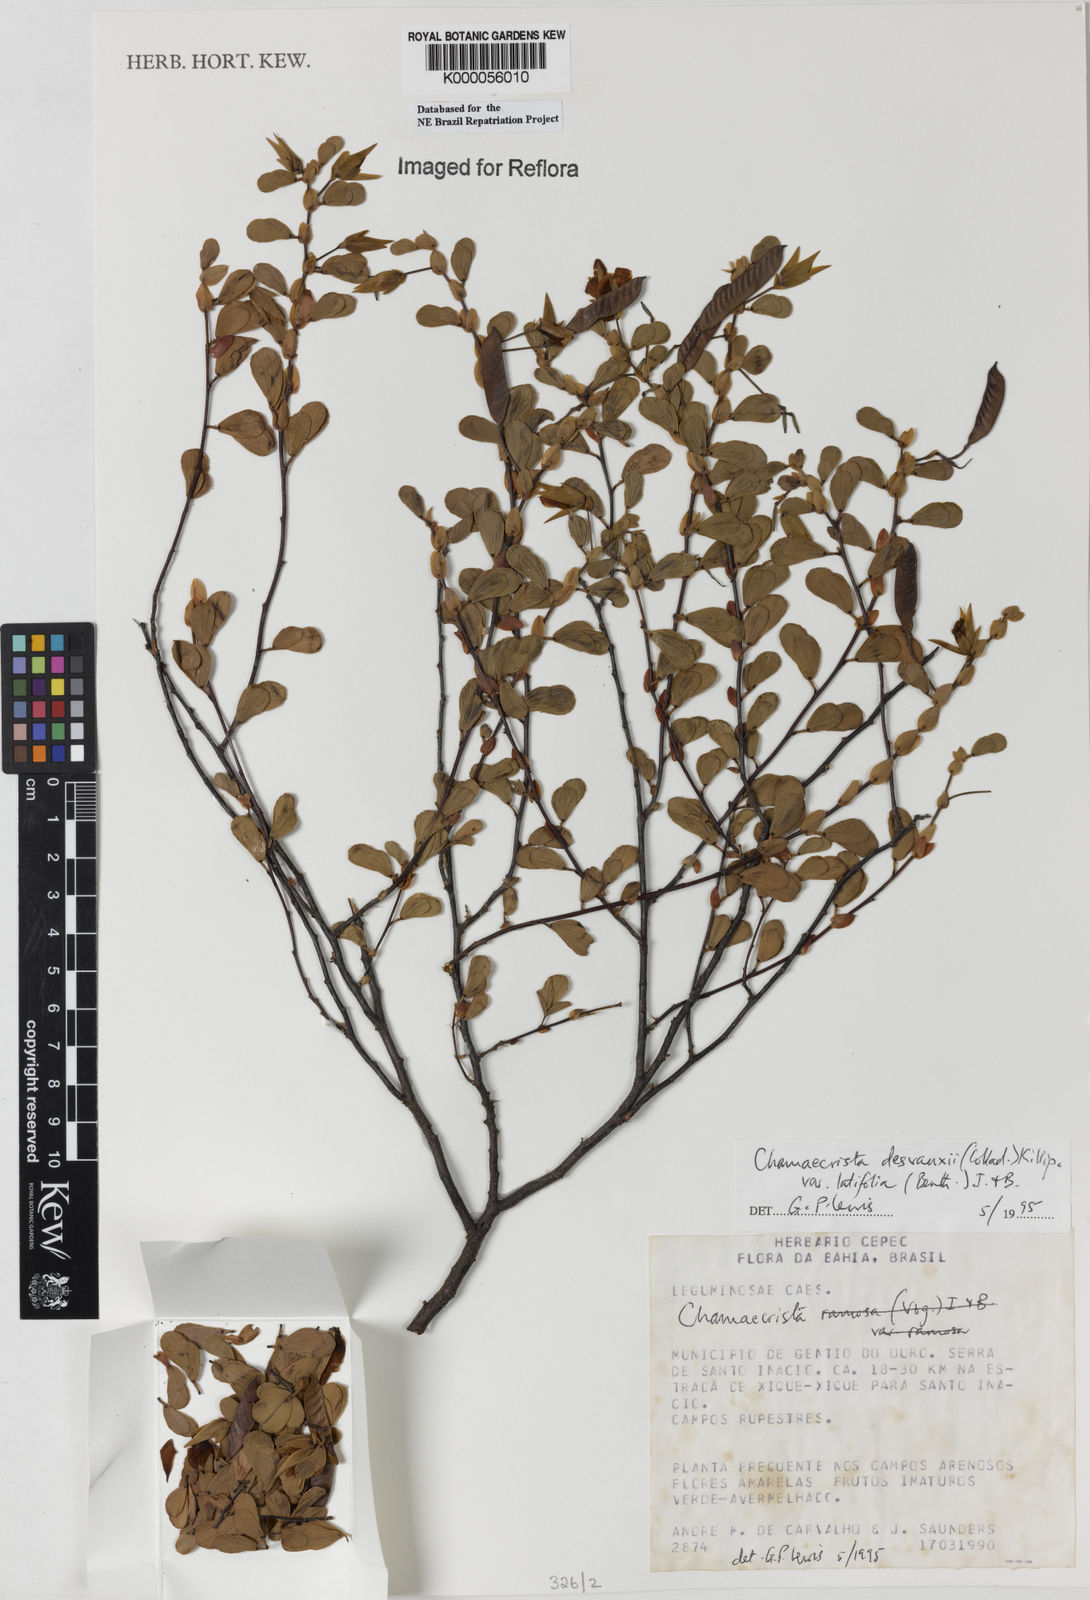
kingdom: Plantae
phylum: Tracheophyta
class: Magnoliopsida
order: Fabales
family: Fabaceae
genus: Chamaecrista
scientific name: Chamaecrista desvauxii
